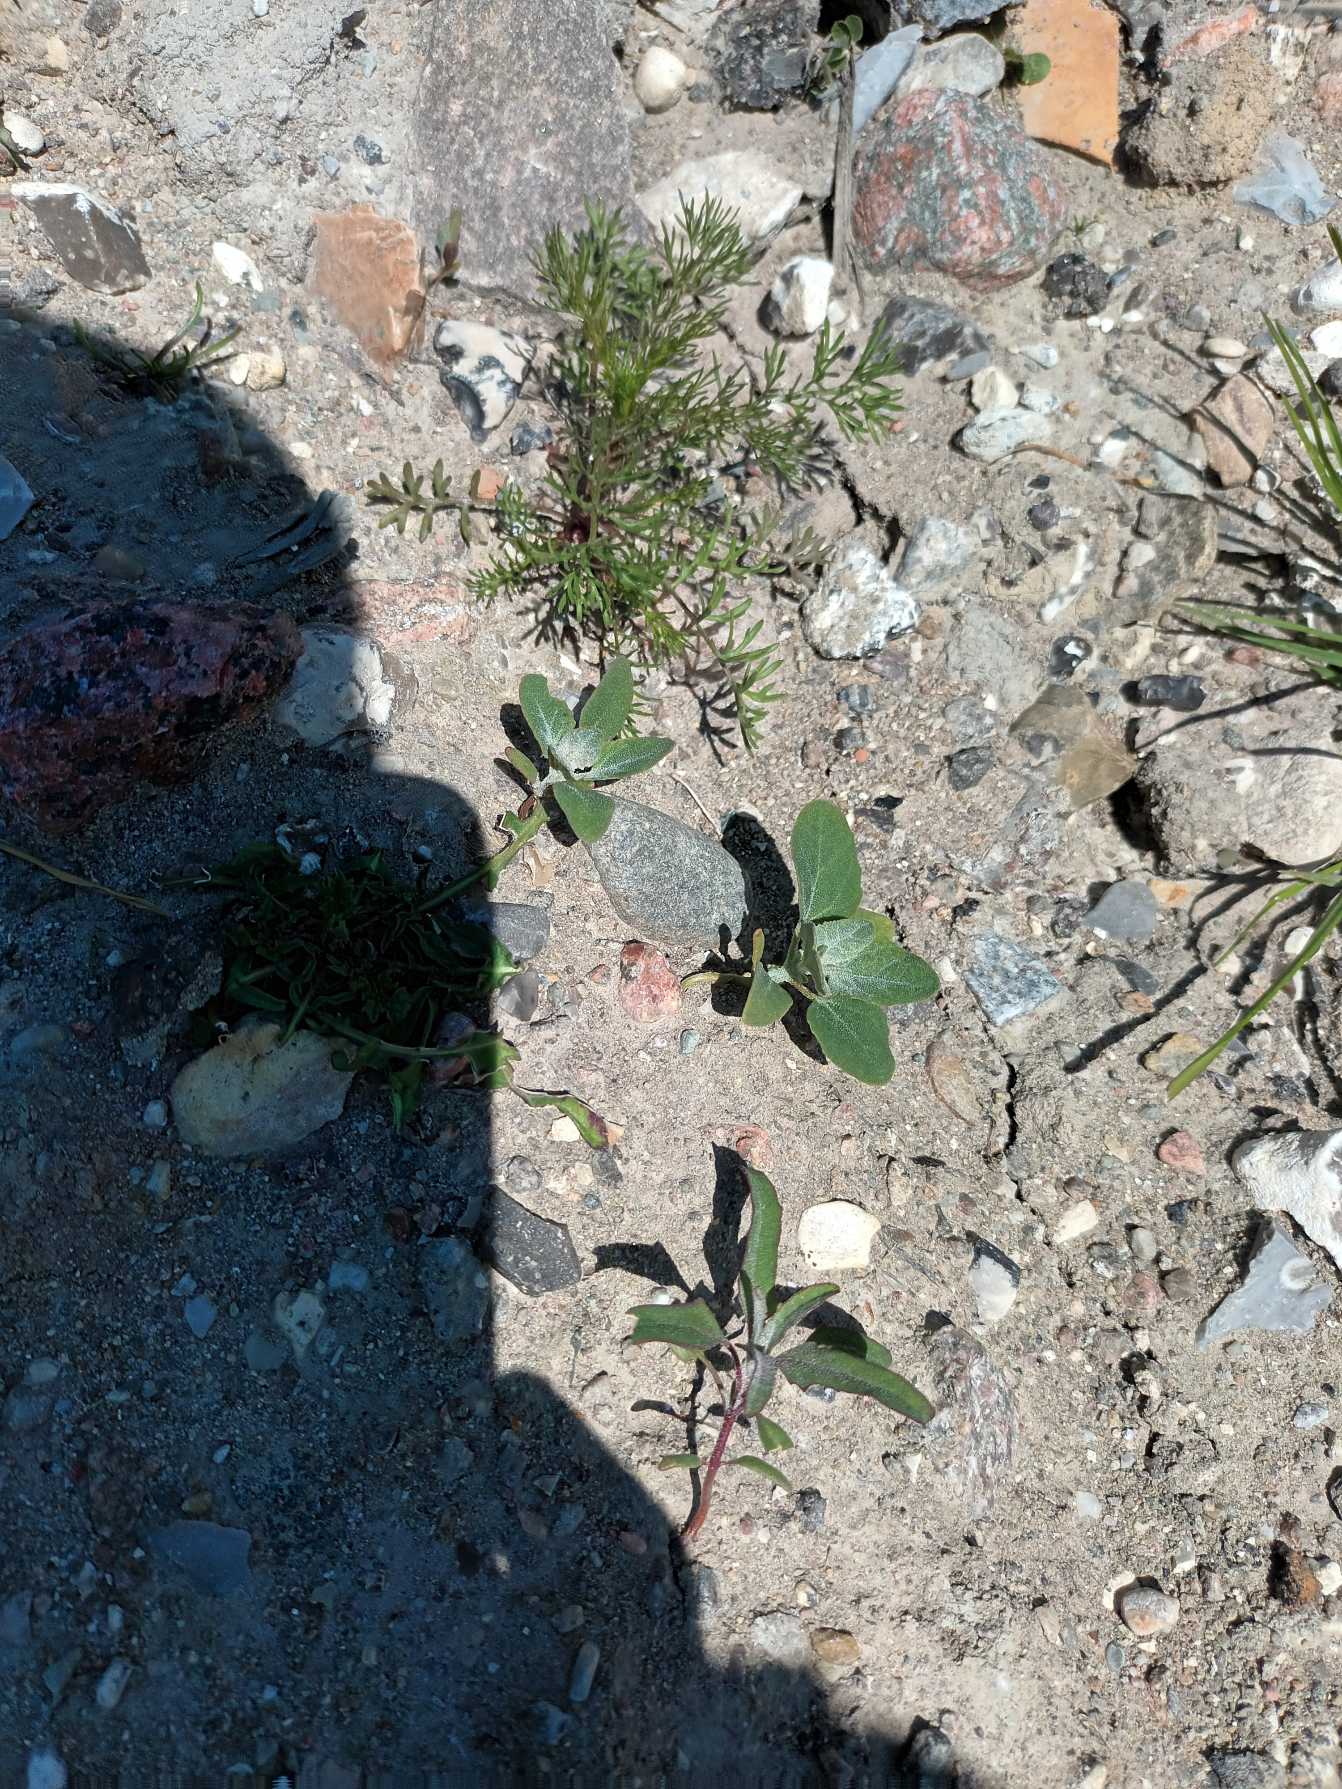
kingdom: Plantae
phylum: Tracheophyta
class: Magnoliopsida
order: Caryophyllales
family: Amaranthaceae
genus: Chenopodium
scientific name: Chenopodium album
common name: Hvidmelet gåsefod
